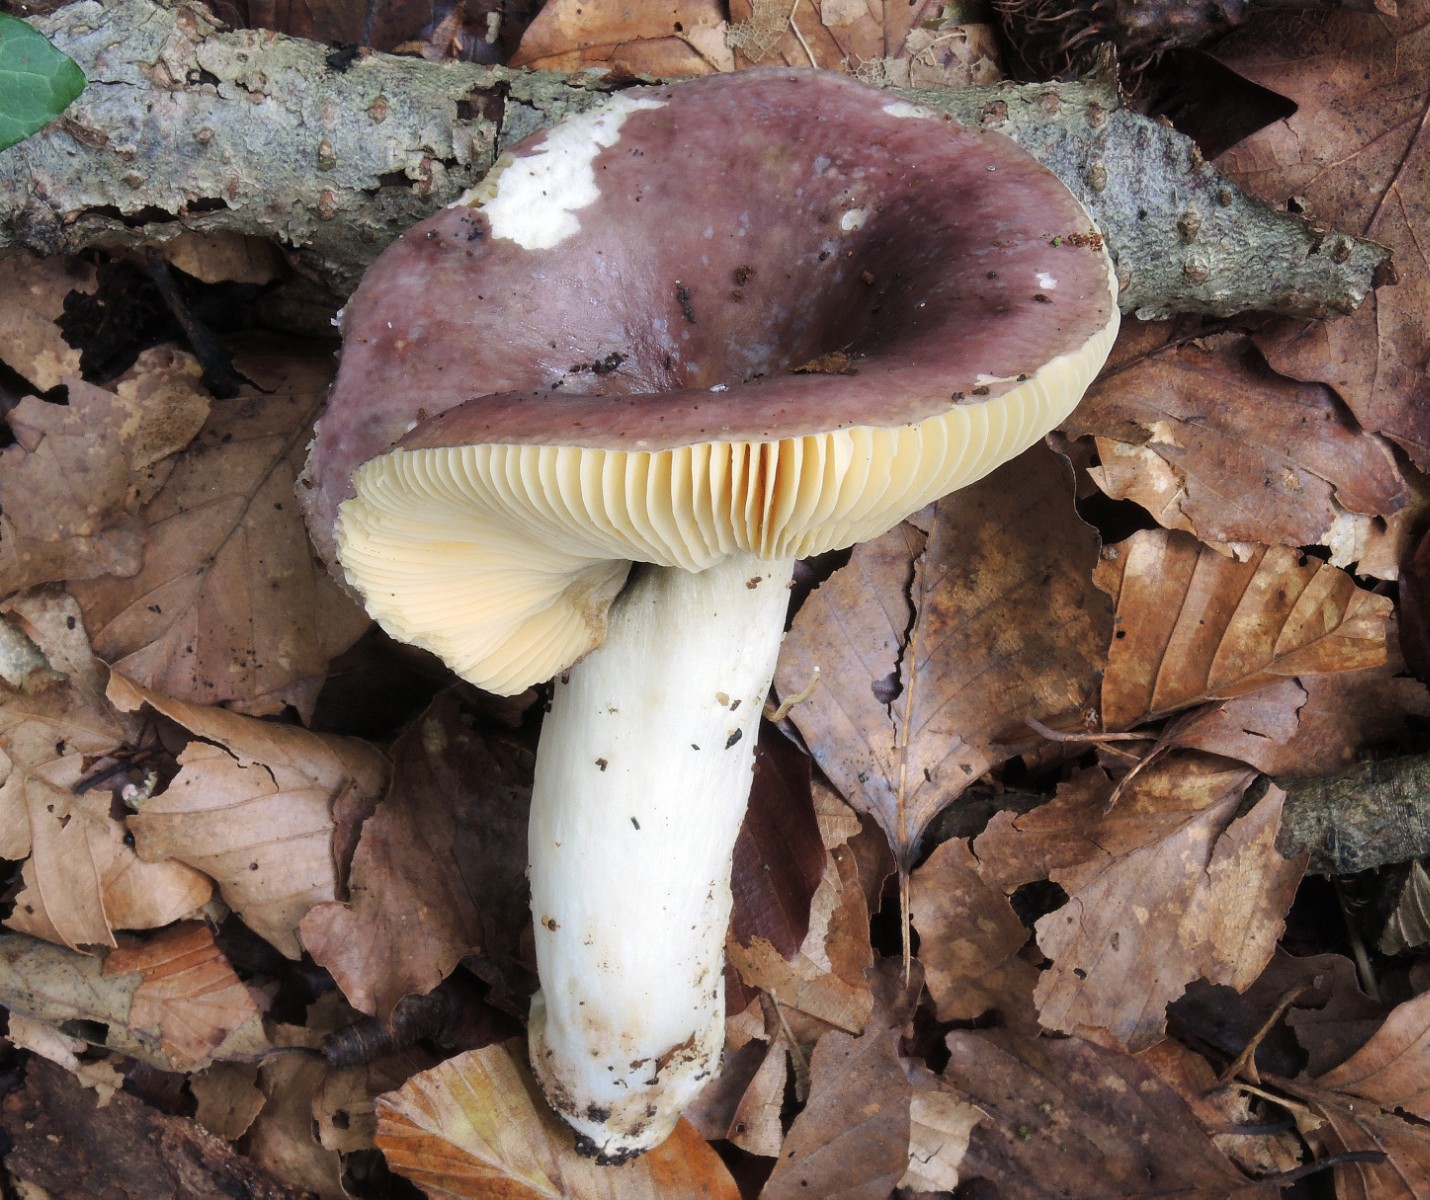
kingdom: Fungi
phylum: Basidiomycota
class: Agaricomycetes
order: Russulales
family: Russulaceae
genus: Russula
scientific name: Russula romellii
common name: romells skørhat
